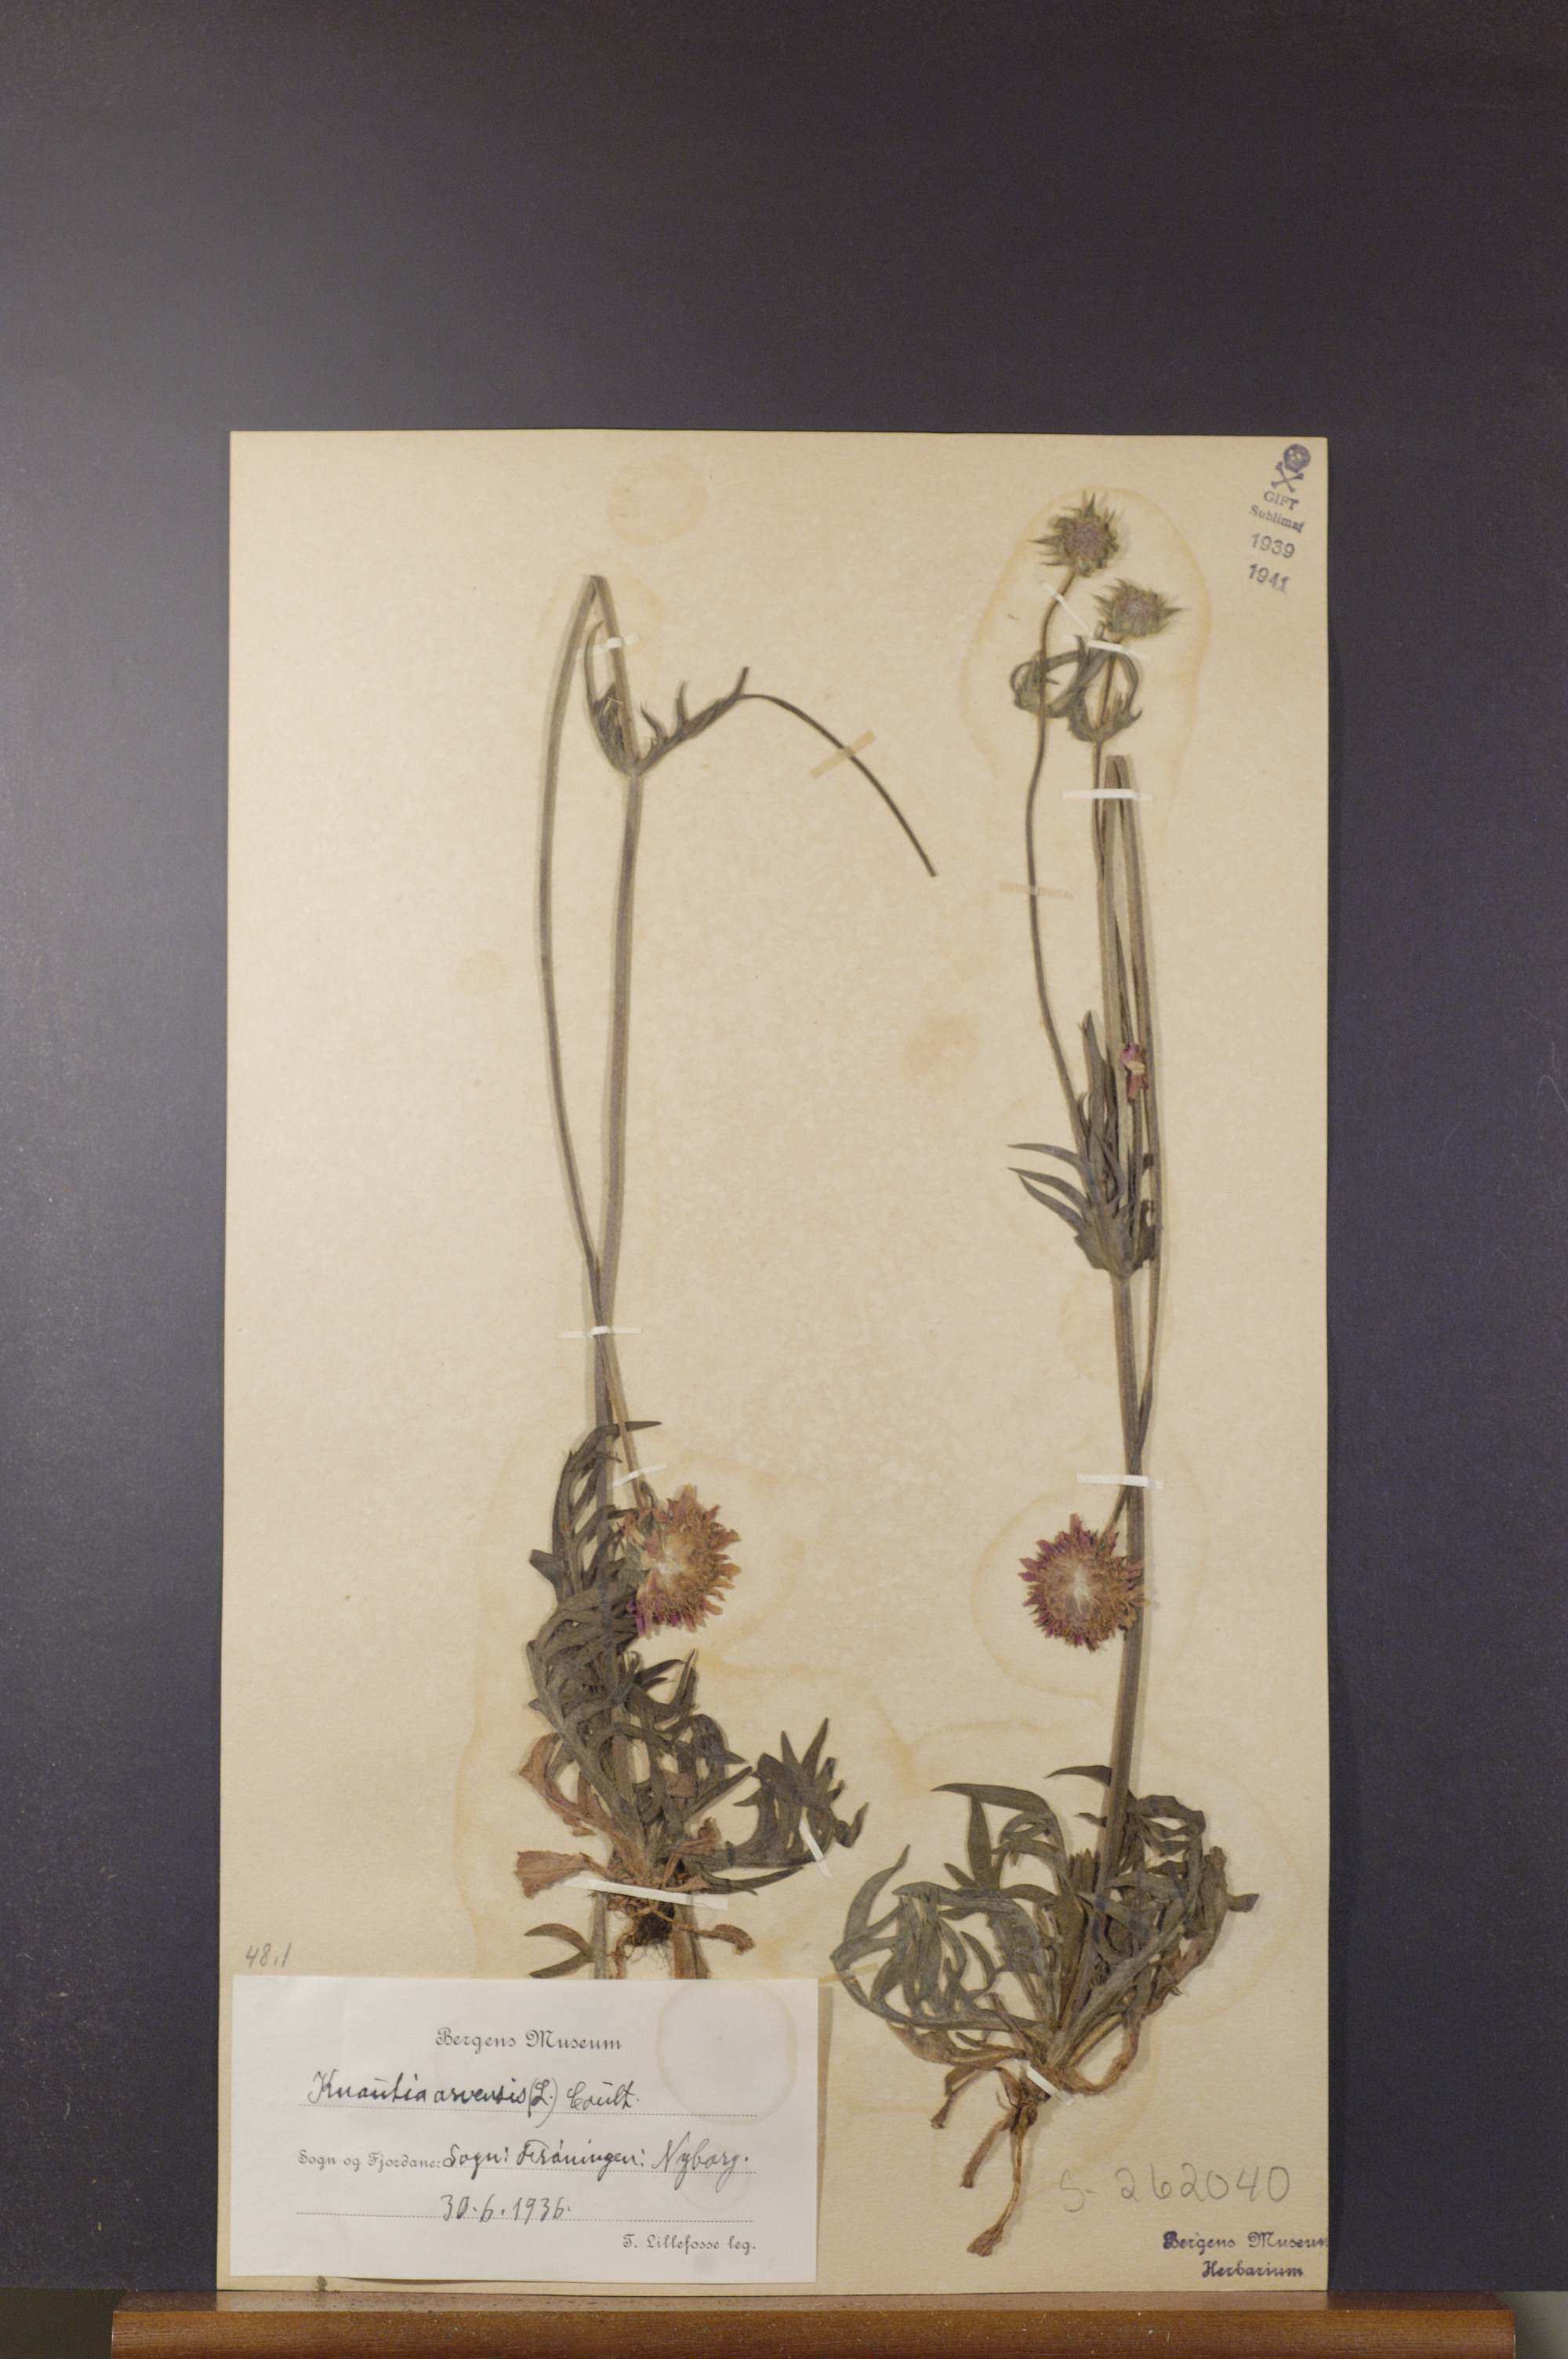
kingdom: Plantae
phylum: Tracheophyta
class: Magnoliopsida
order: Dipsacales
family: Caprifoliaceae
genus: Knautia
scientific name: Knautia arvensis
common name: Field scabiosa
